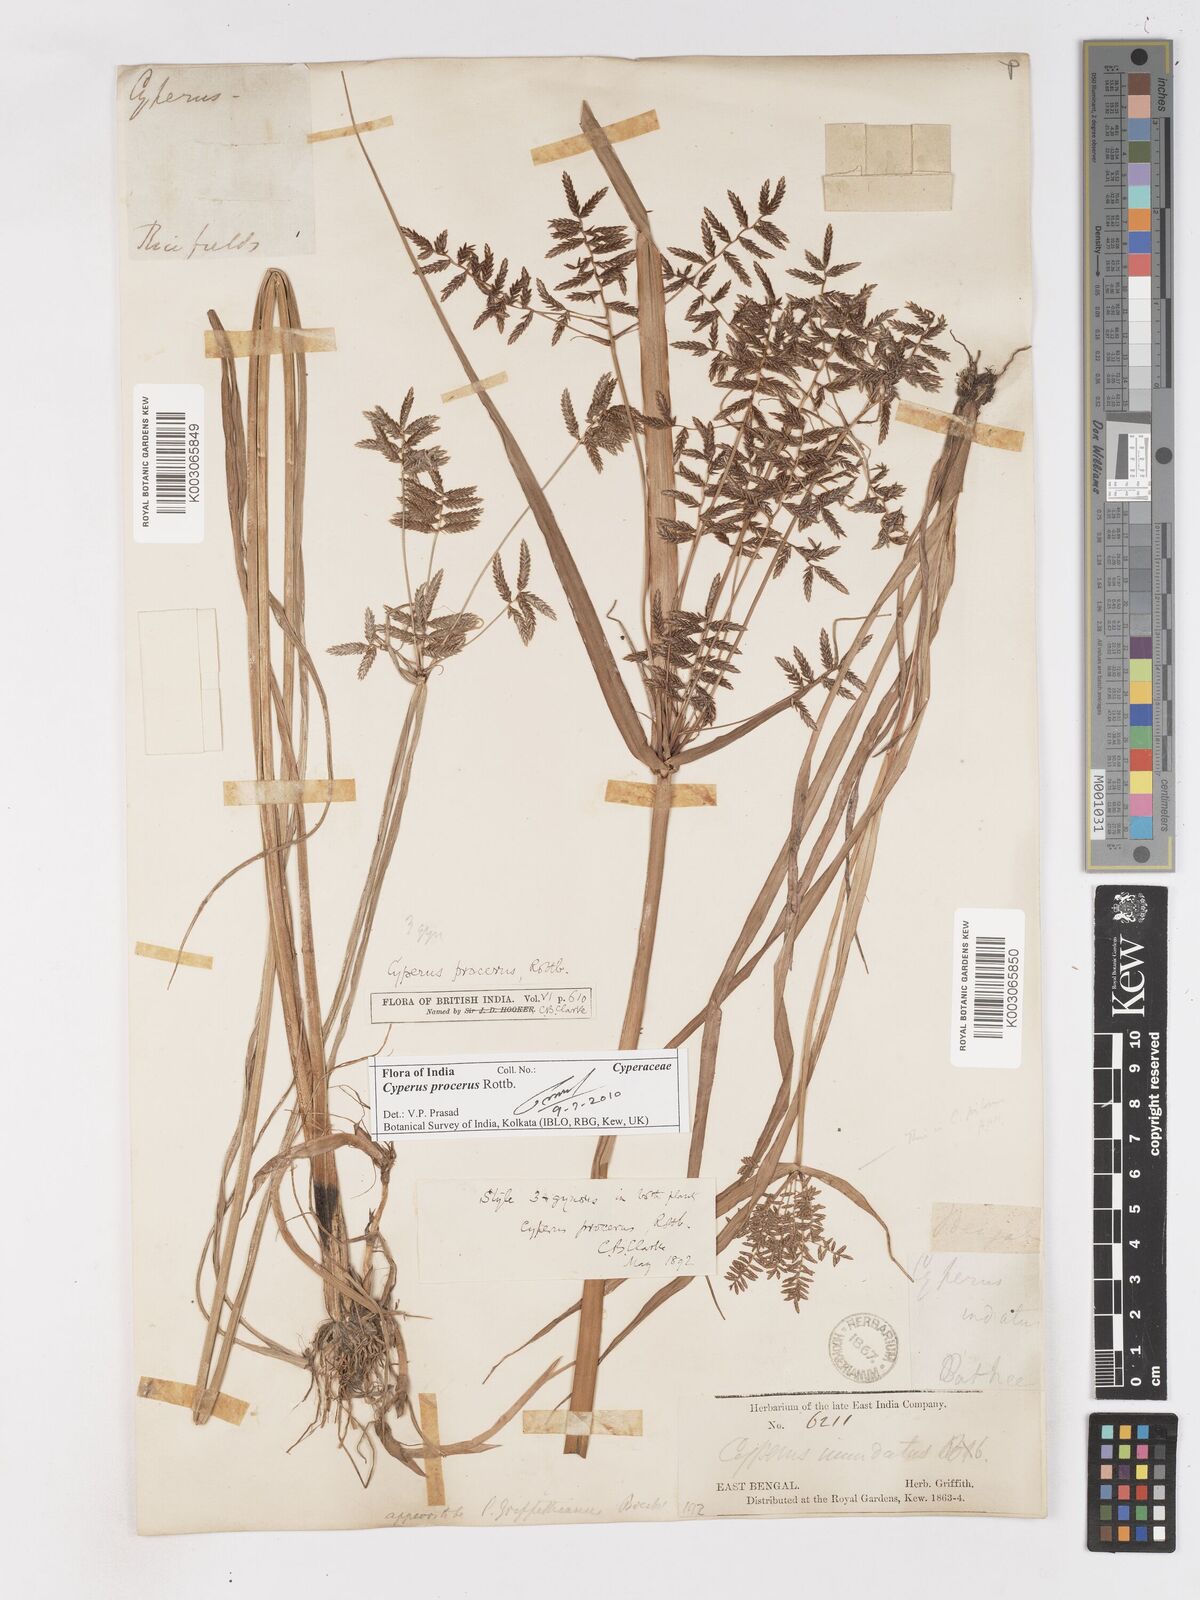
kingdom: Plantae
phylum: Tracheophyta
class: Liliopsida
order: Poales
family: Cyperaceae
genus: Cyperus
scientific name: Cyperus procerus
